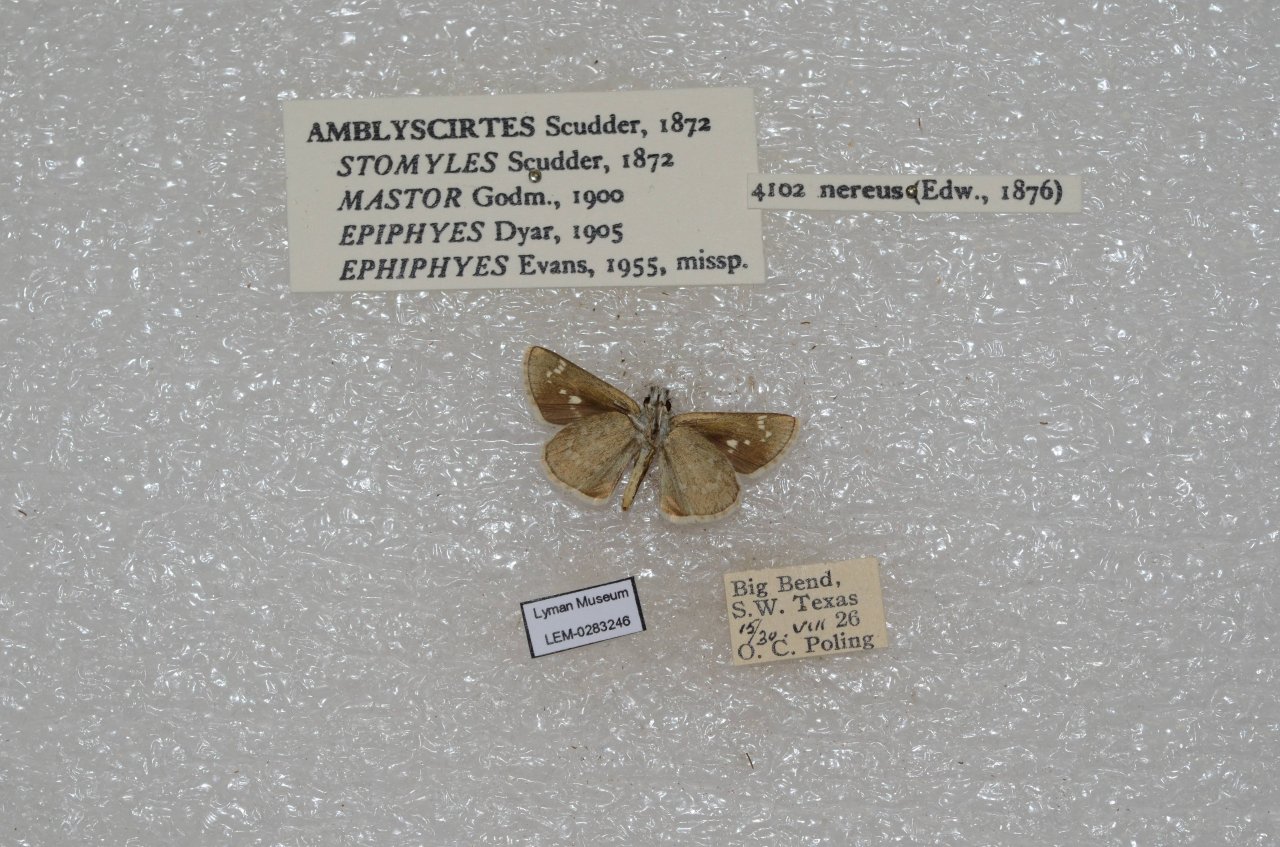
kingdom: Animalia
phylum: Arthropoda
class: Insecta
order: Lepidoptera
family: Hesperiidae
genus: Mastor
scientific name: Mastor nereus
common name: Slaty Roadside-Skipper
